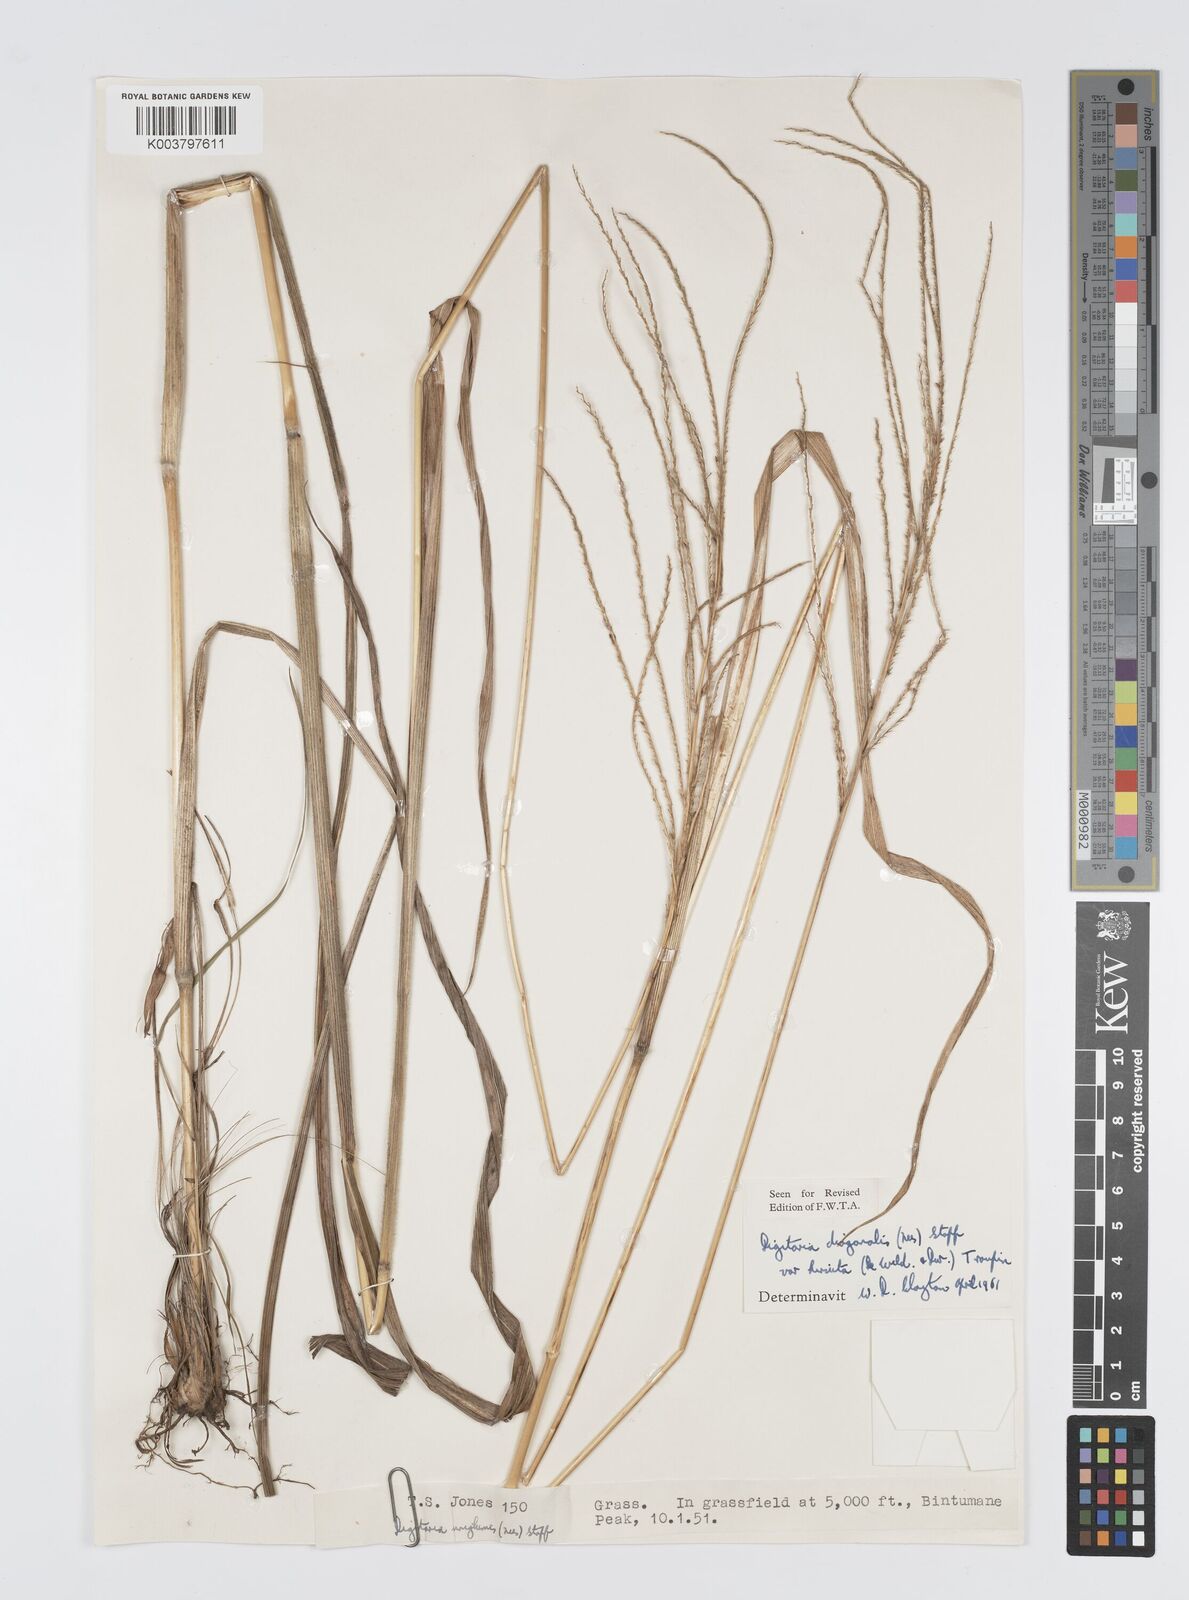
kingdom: Plantae
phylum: Tracheophyta
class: Liliopsida
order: Poales
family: Poaceae
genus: Digitaria
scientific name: Digitaria diagonalis
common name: Brown-seed finger grass
